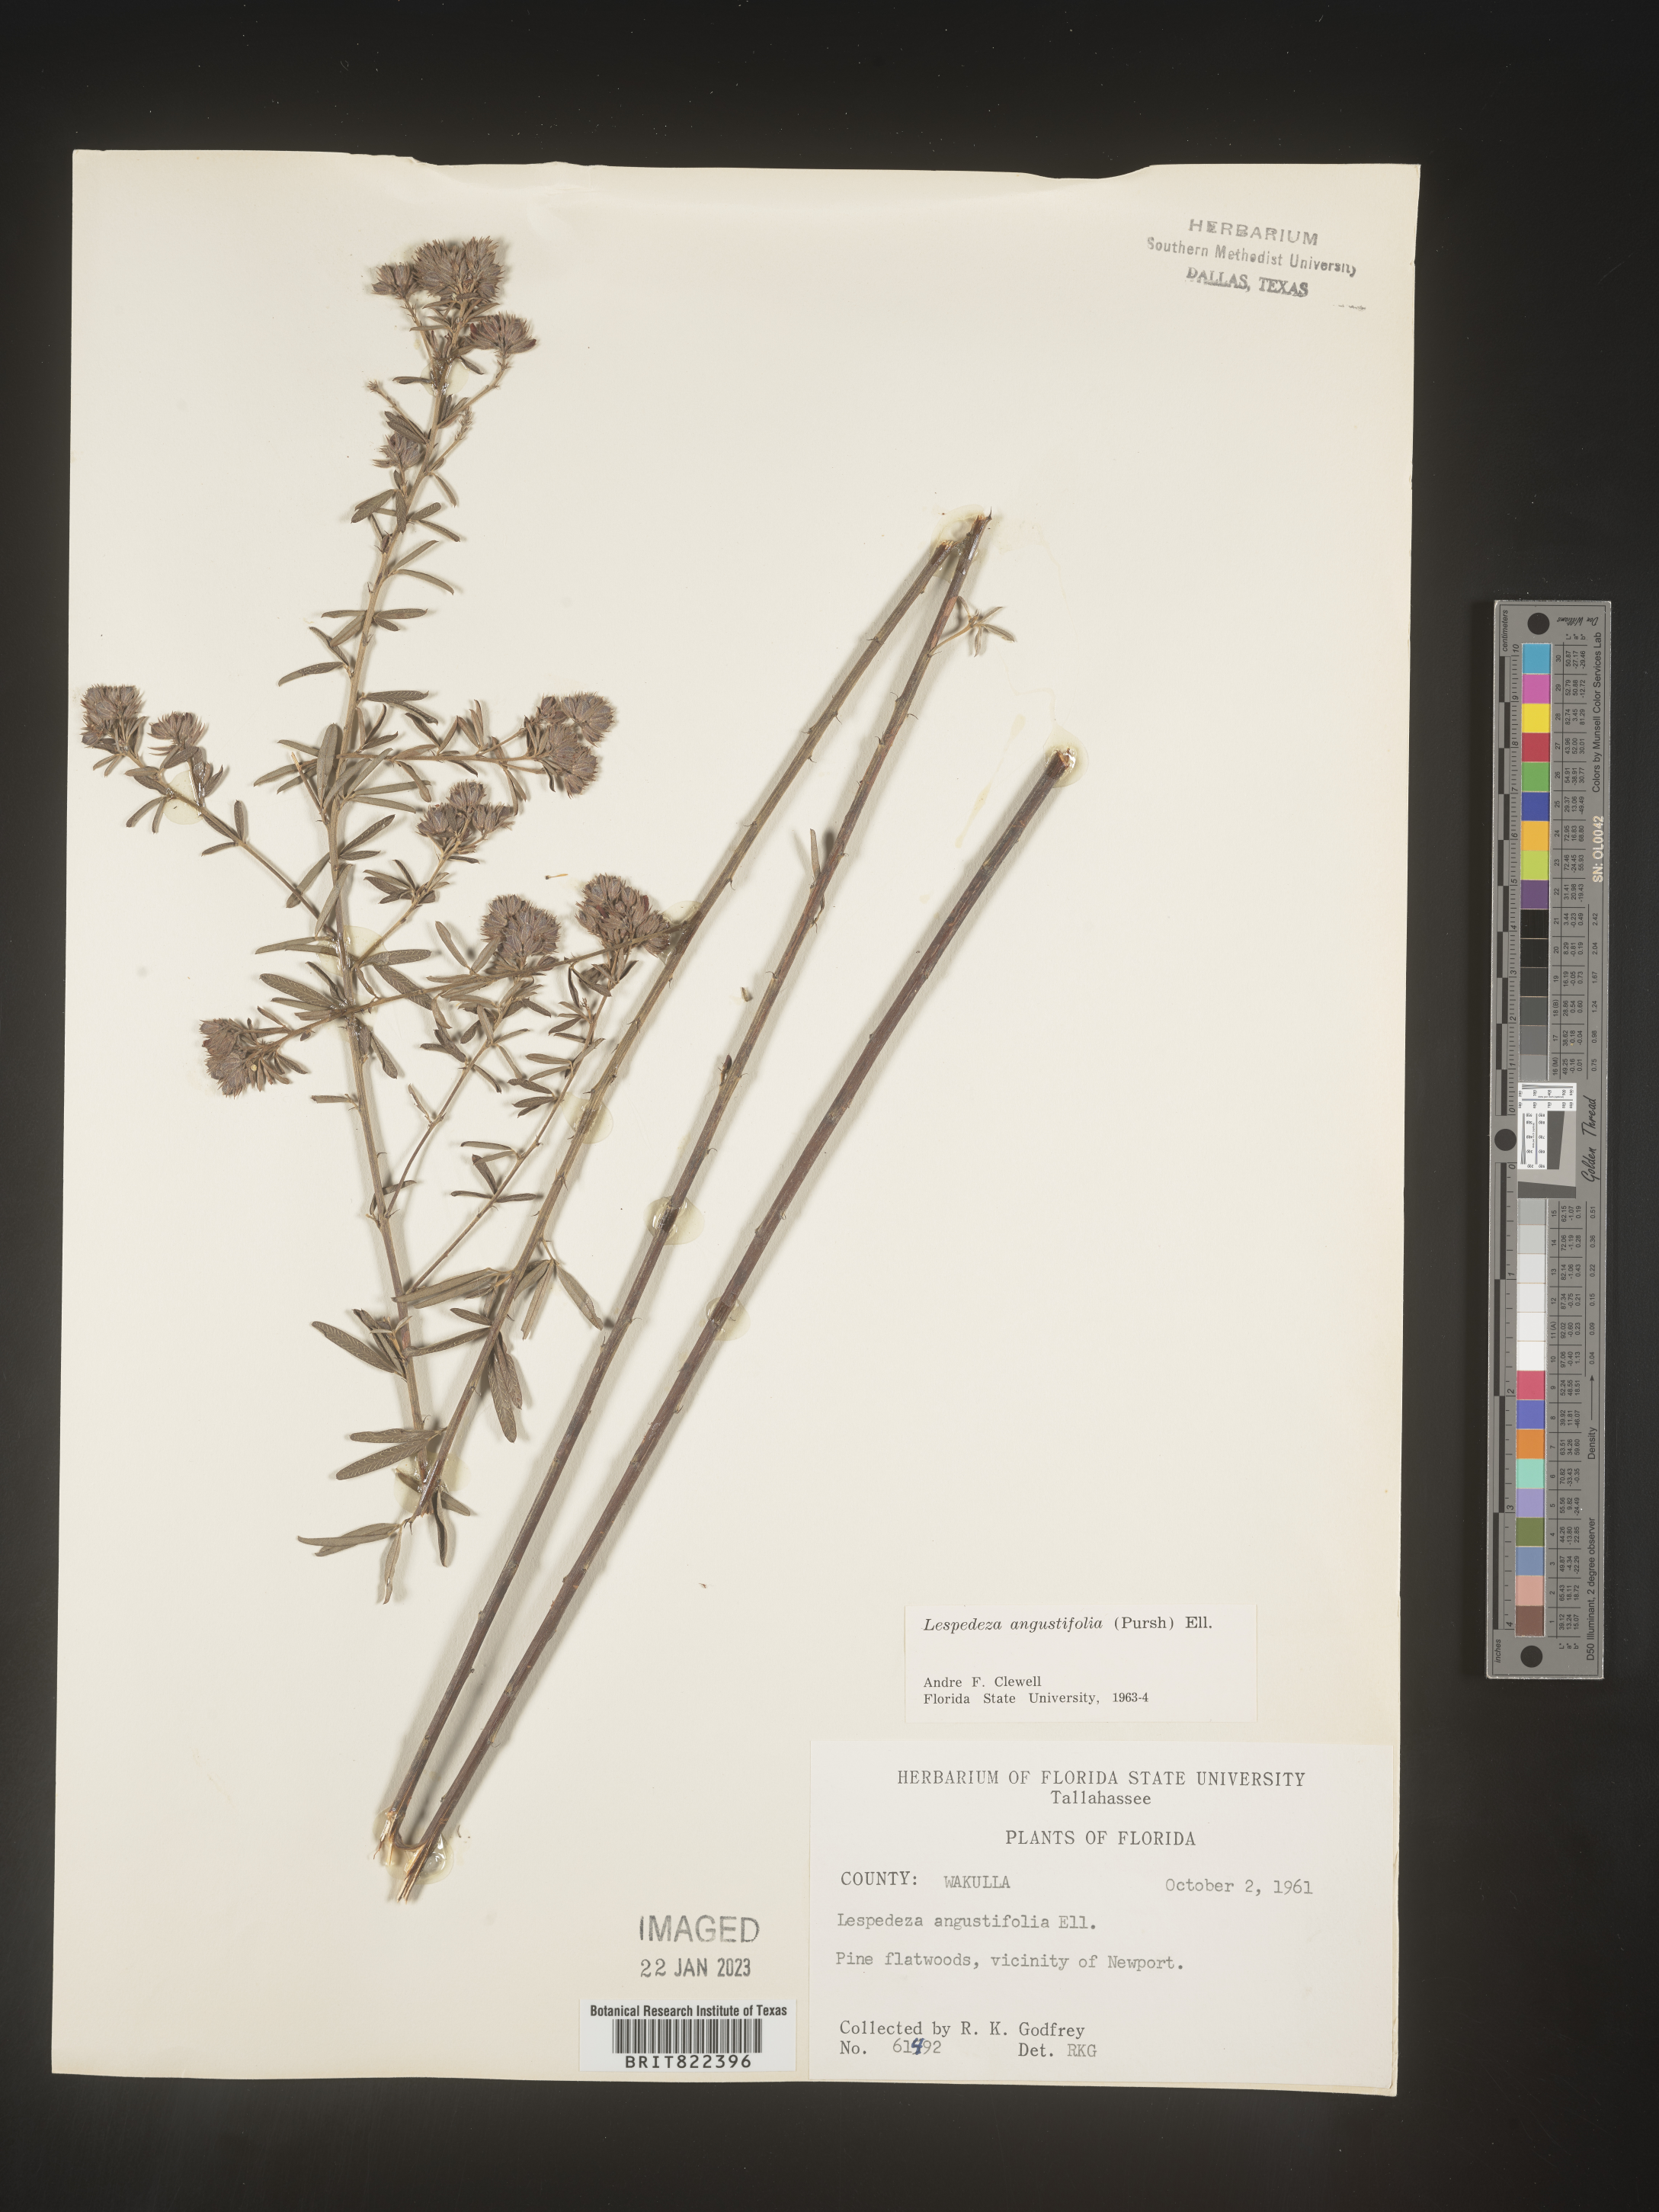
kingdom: Plantae
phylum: Tracheophyta
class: Magnoliopsida
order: Fabales
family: Fabaceae
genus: Lespedeza
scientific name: Lespedeza
